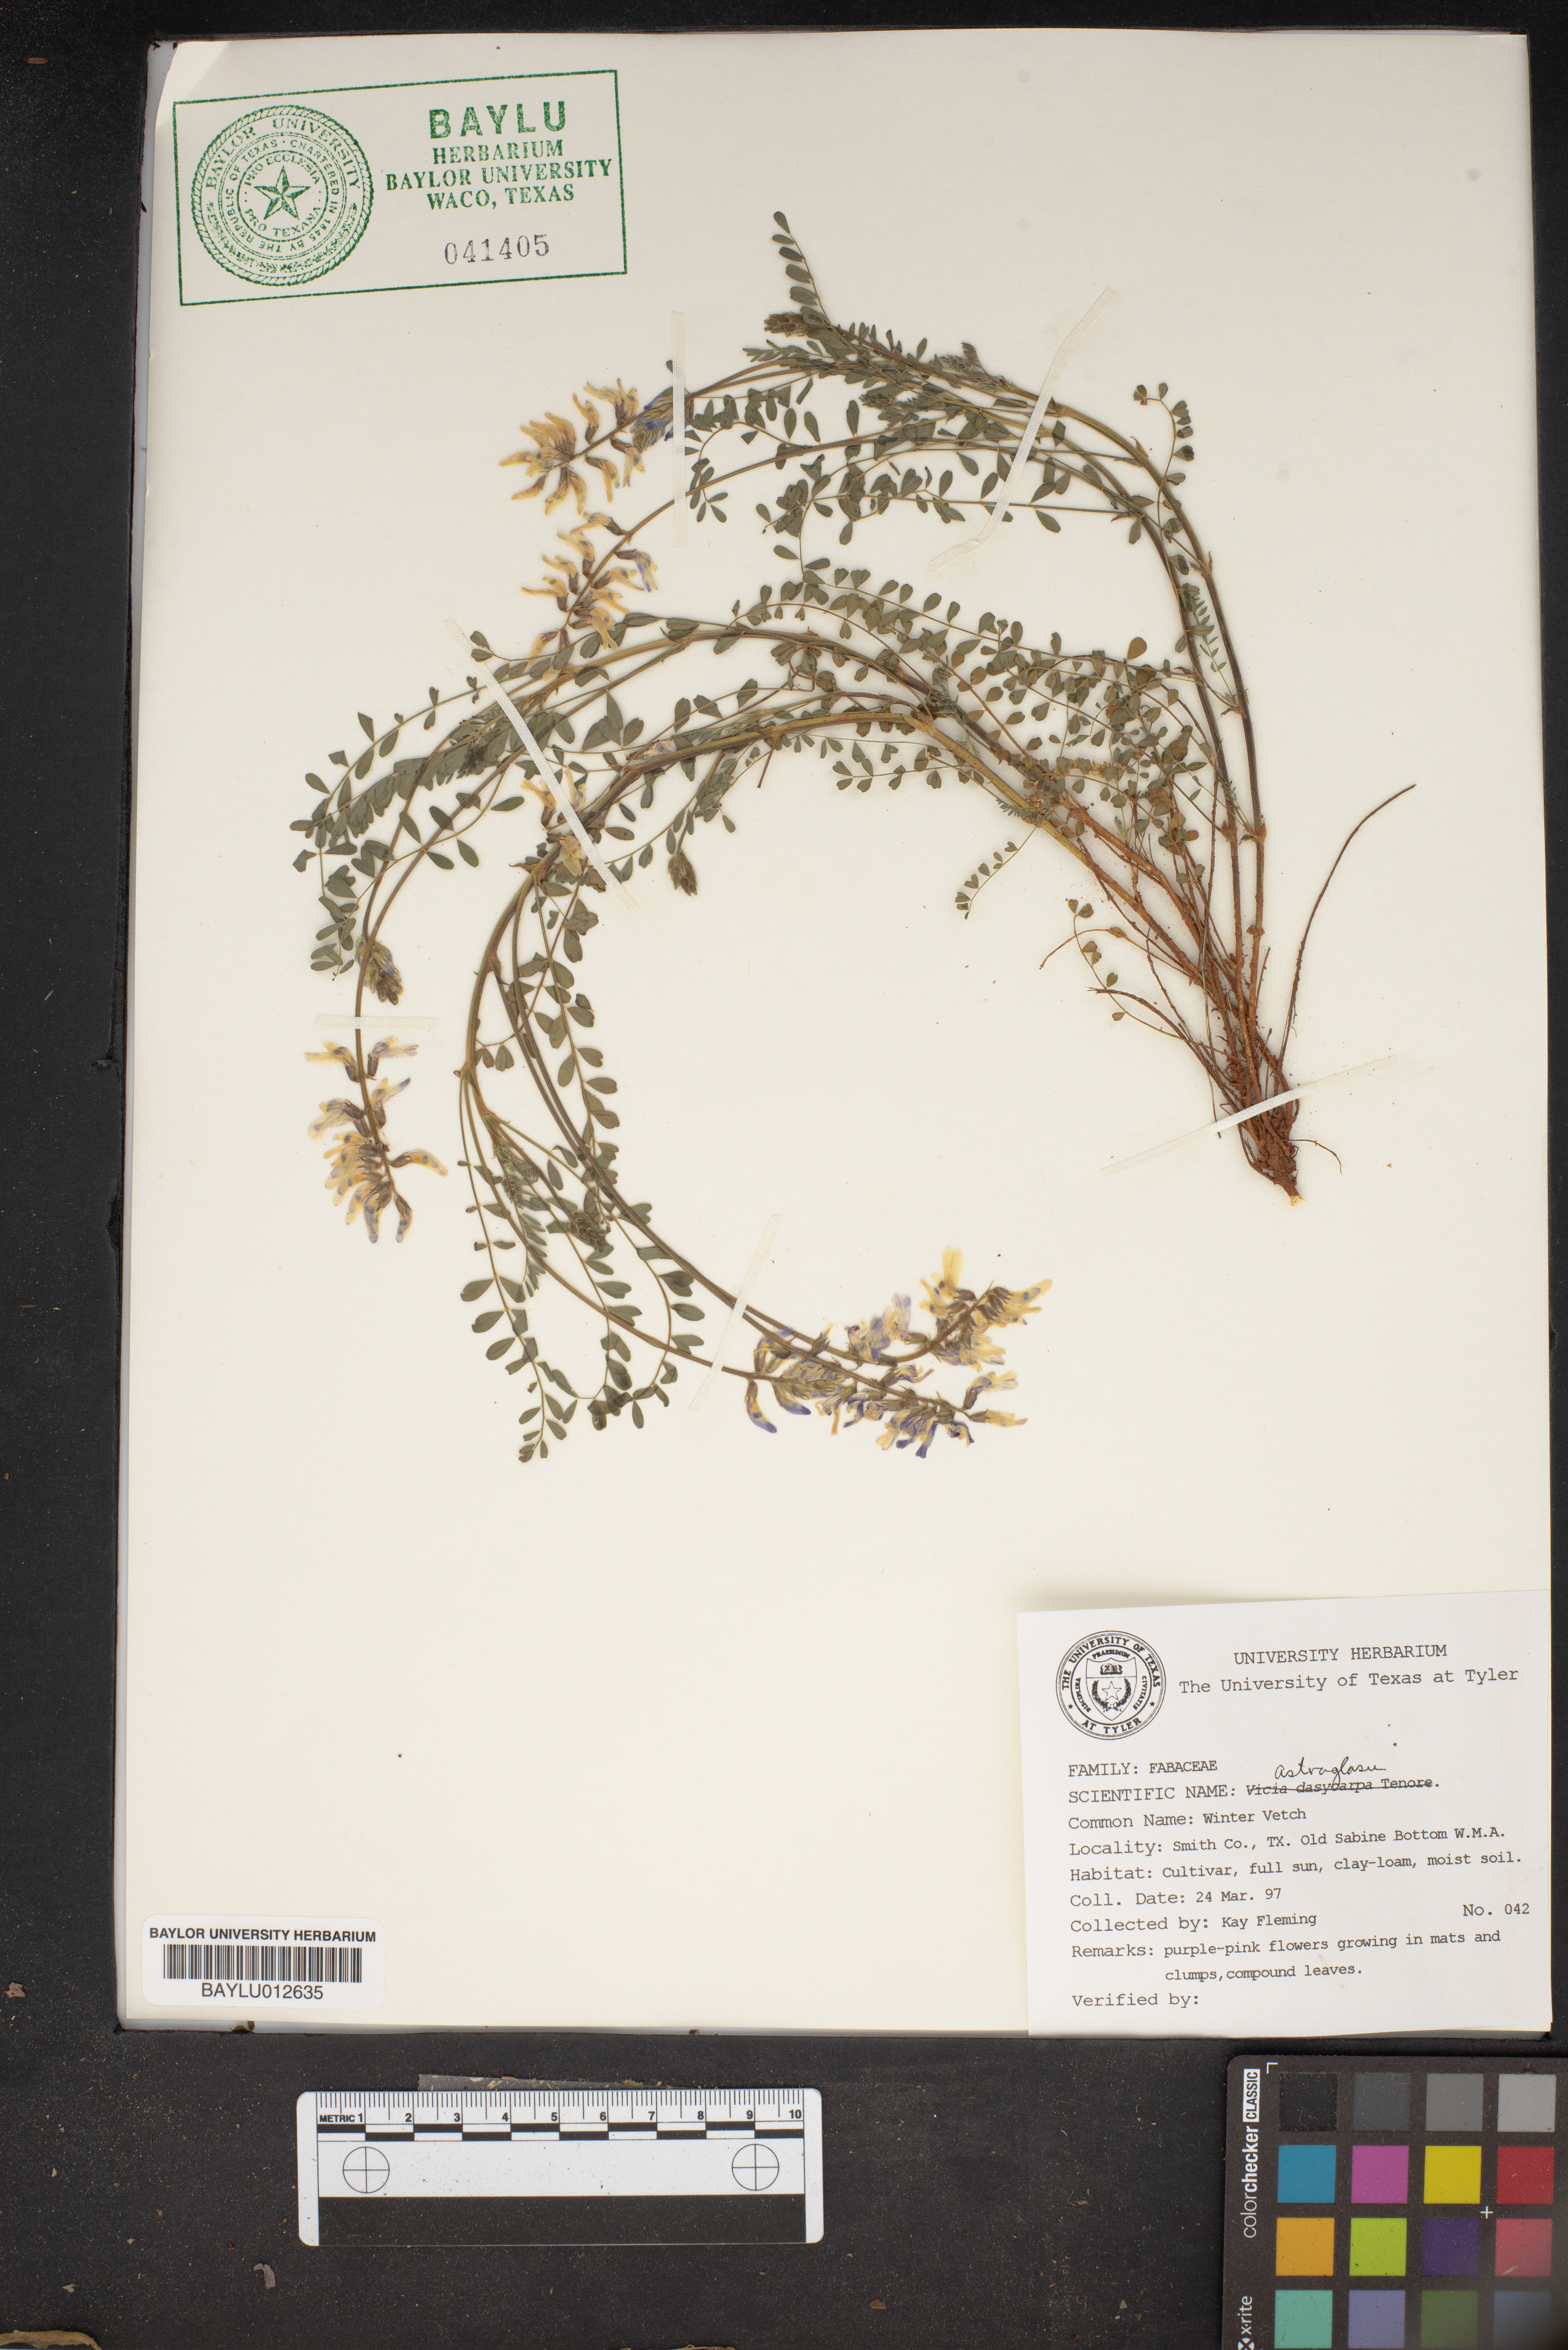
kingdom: Plantae
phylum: Tracheophyta
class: Magnoliopsida
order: Fabales
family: Fabaceae
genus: Astragalus
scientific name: Astragalus
